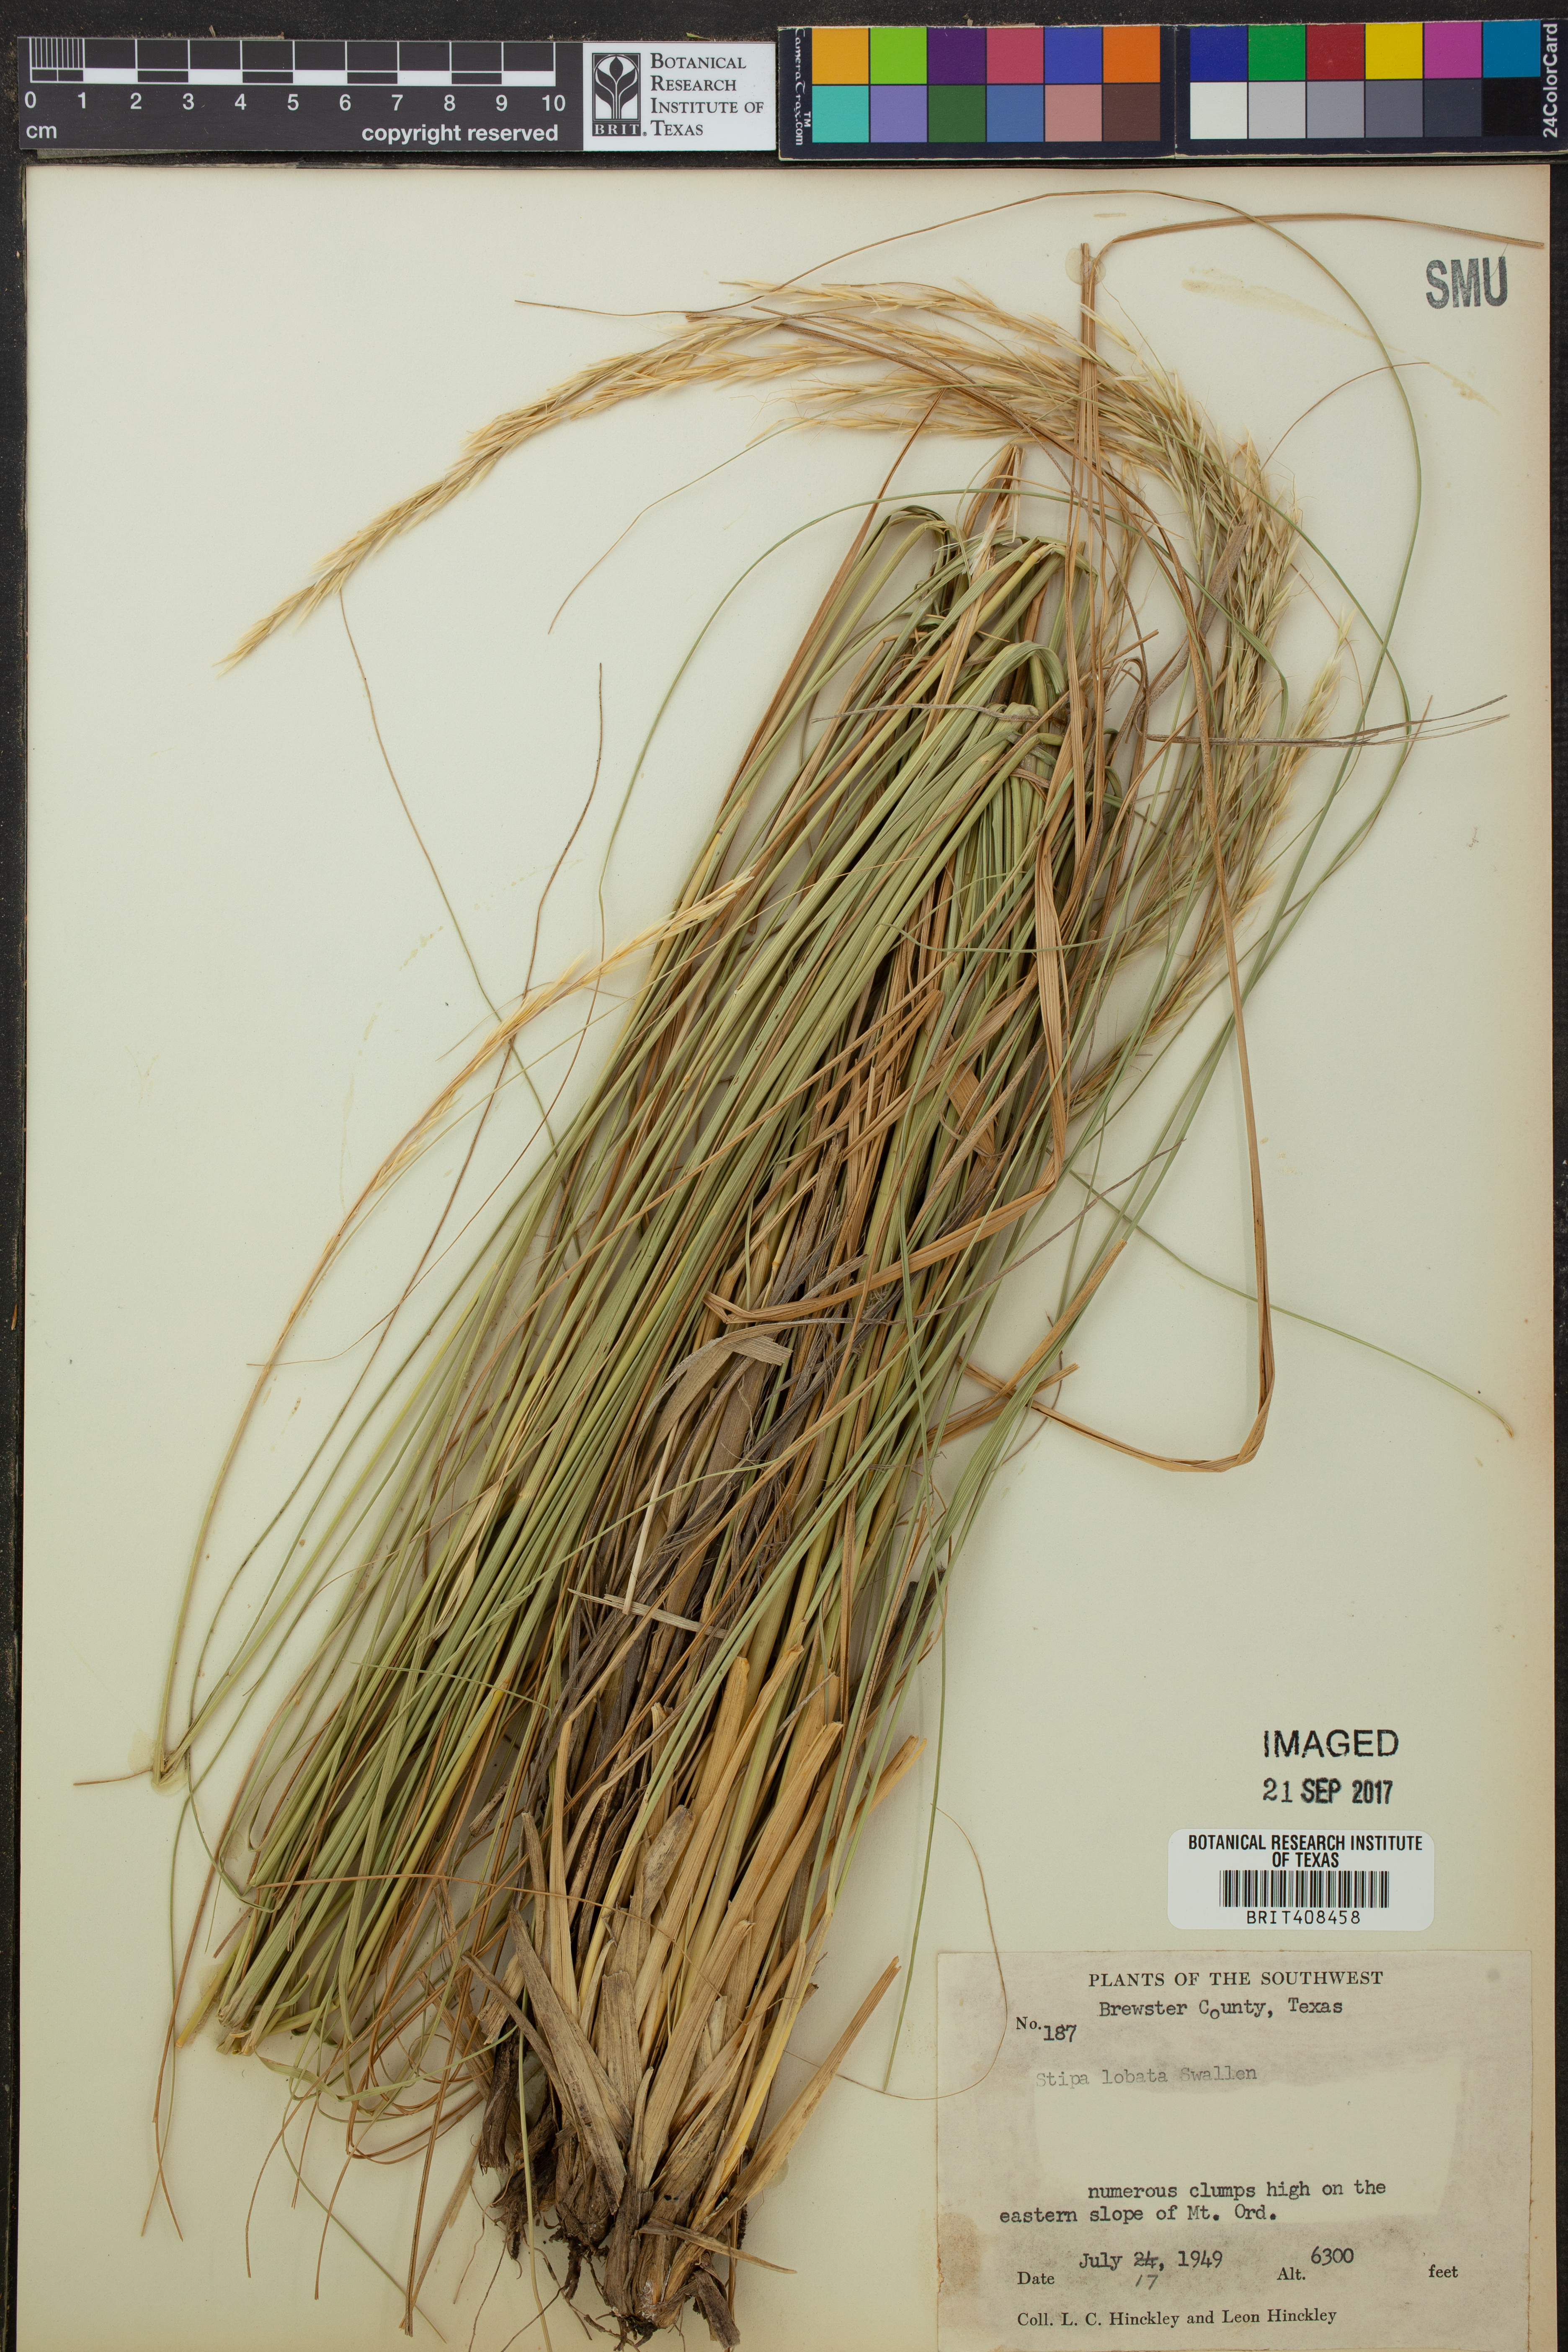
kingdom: Plantae
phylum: Tracheophyta
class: Liliopsida
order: Poales
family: Poaceae
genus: Eriocoma
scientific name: Eriocoma lobata
